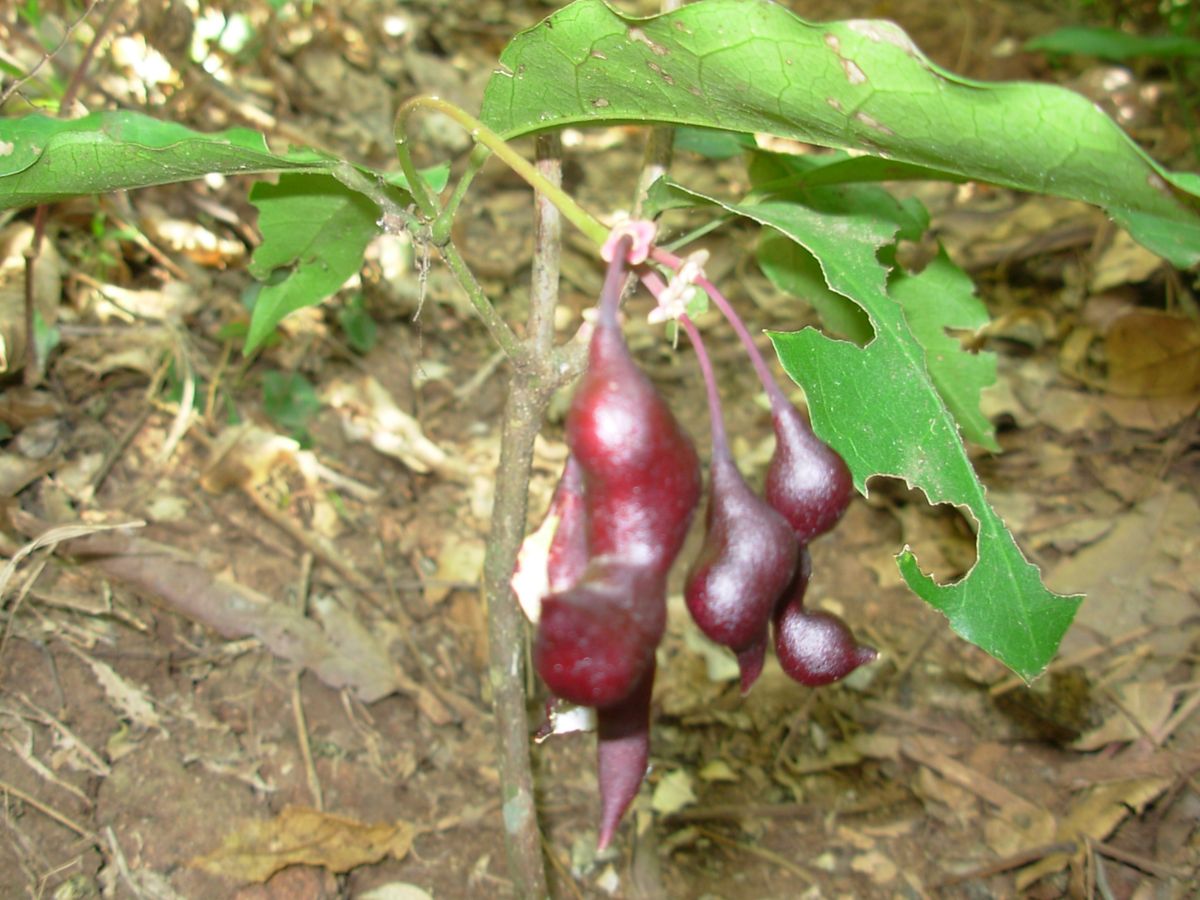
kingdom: Plantae
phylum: Tracheophyta
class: Magnoliopsida
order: Brassicales
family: Capparaceae
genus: Capparidastrum
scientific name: Capparidastrum frondosum
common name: Church blossom
